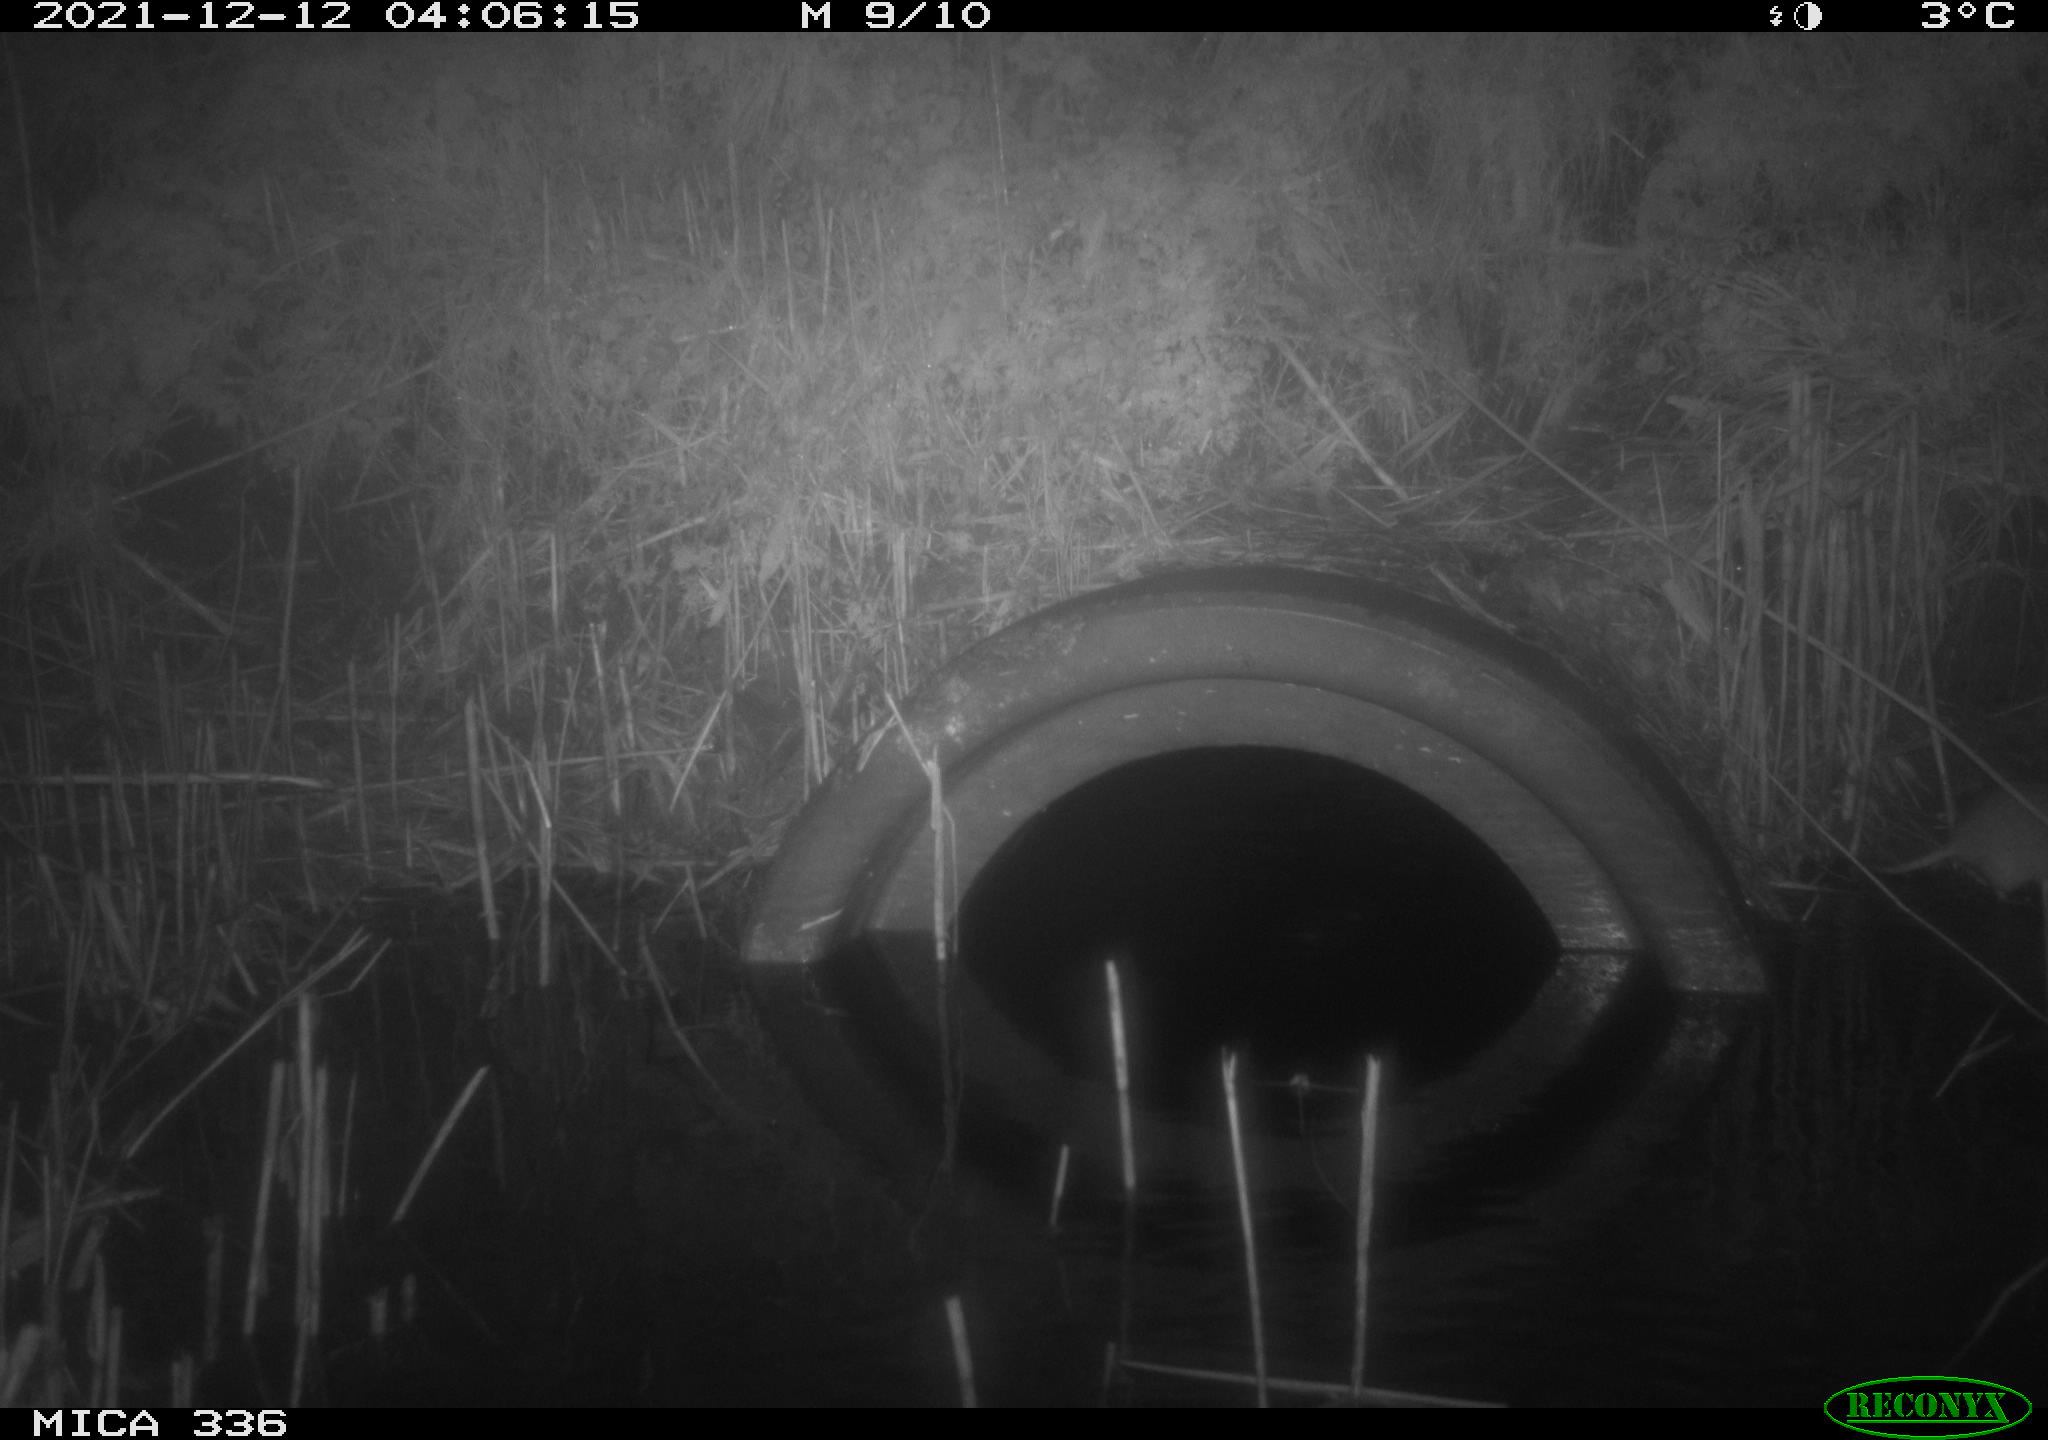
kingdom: Animalia
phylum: Chordata
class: Mammalia
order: Rodentia
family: Muridae
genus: Rattus
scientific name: Rattus norvegicus
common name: Brown rat
